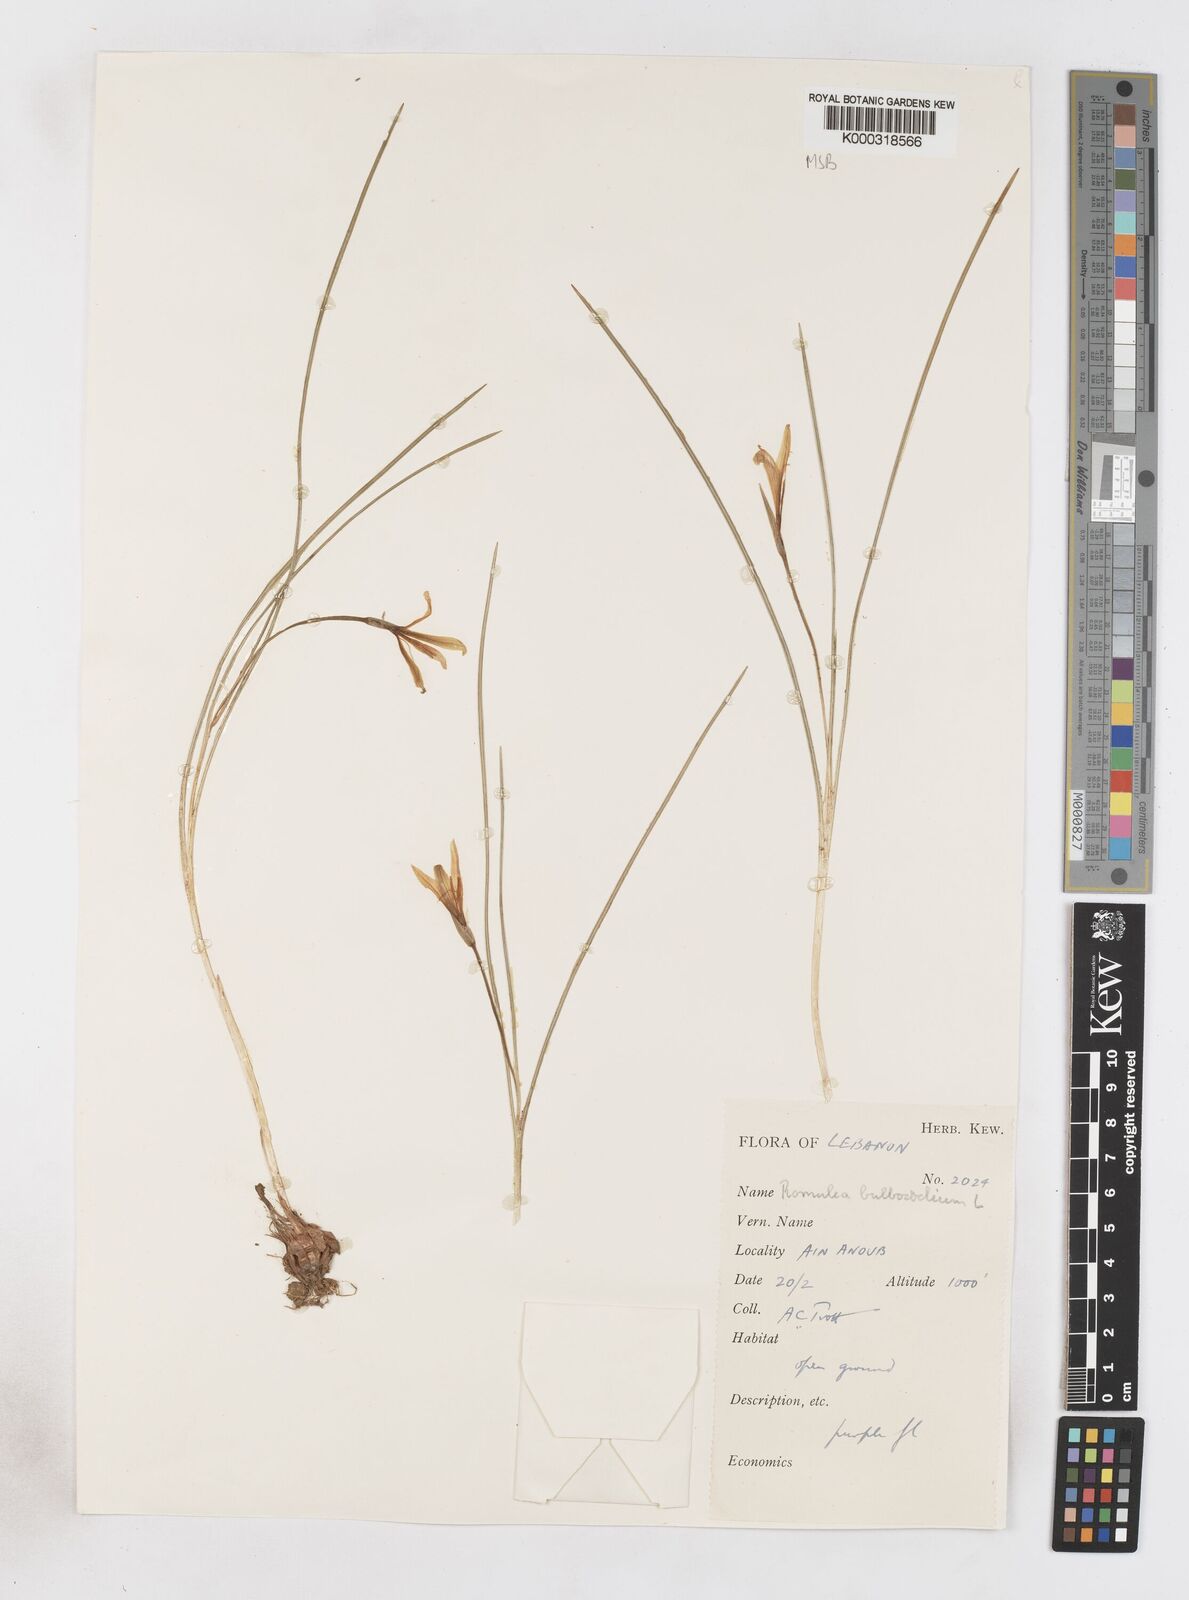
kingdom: Plantae
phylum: Tracheophyta
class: Liliopsida
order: Asparagales
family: Iridaceae
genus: Romulea
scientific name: Romulea bulbocodium
